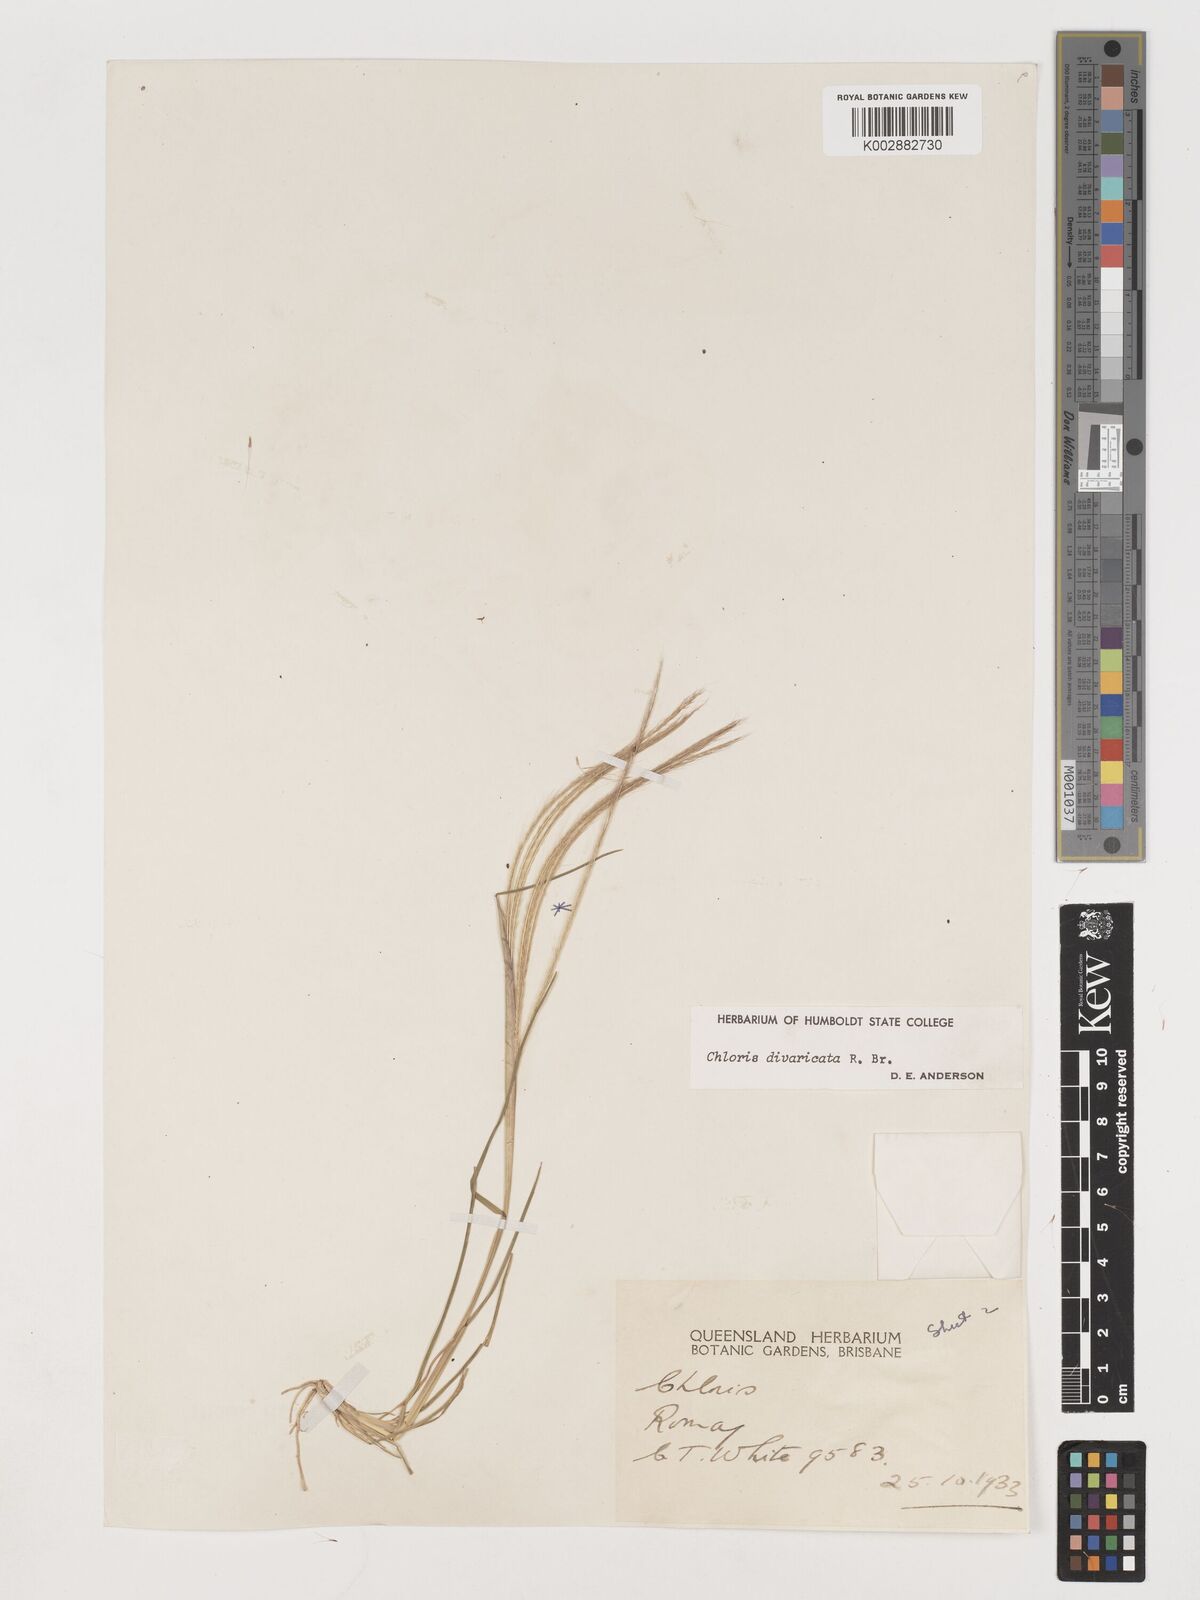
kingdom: Plantae
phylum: Tracheophyta
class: Liliopsida
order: Poales
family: Poaceae
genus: Chloris
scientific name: Chloris divaricata
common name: Spreading windmill grass
